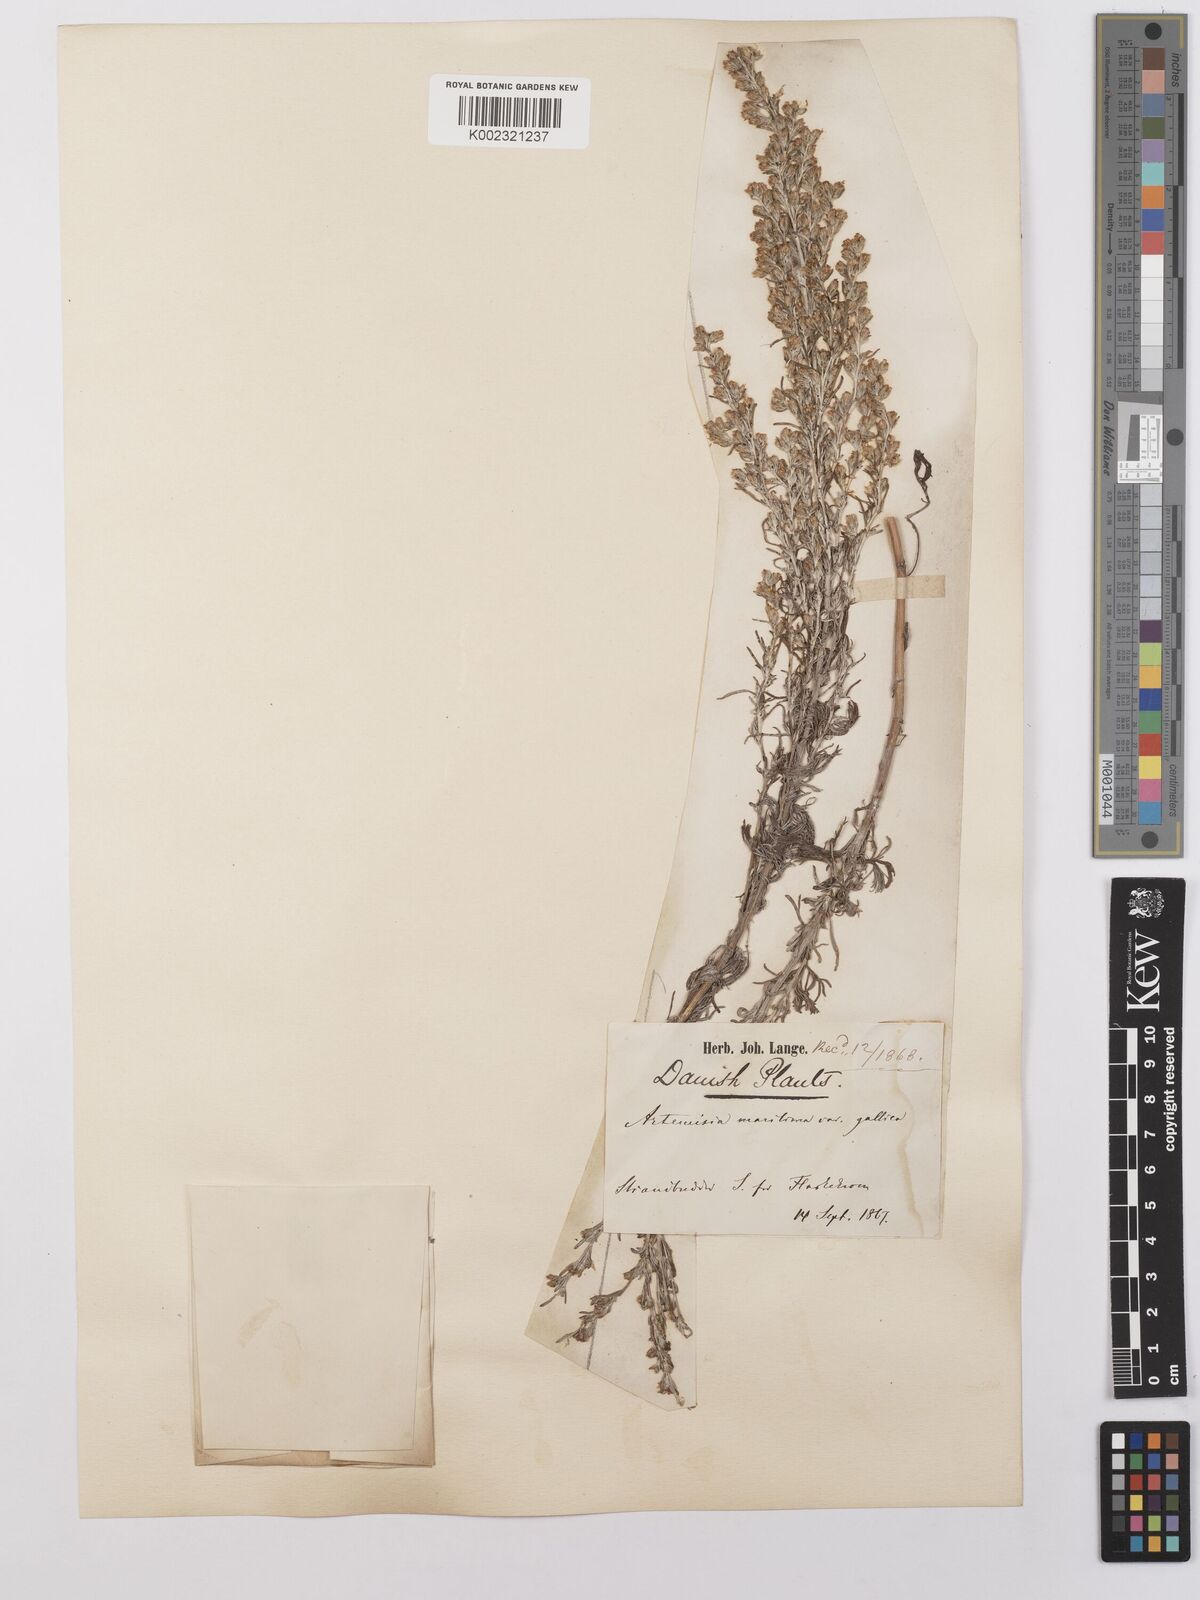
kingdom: Plantae
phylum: Tracheophyta
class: Magnoliopsida
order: Asterales
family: Asteraceae
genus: Artemisia
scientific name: Artemisia maritima
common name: Wormseed
